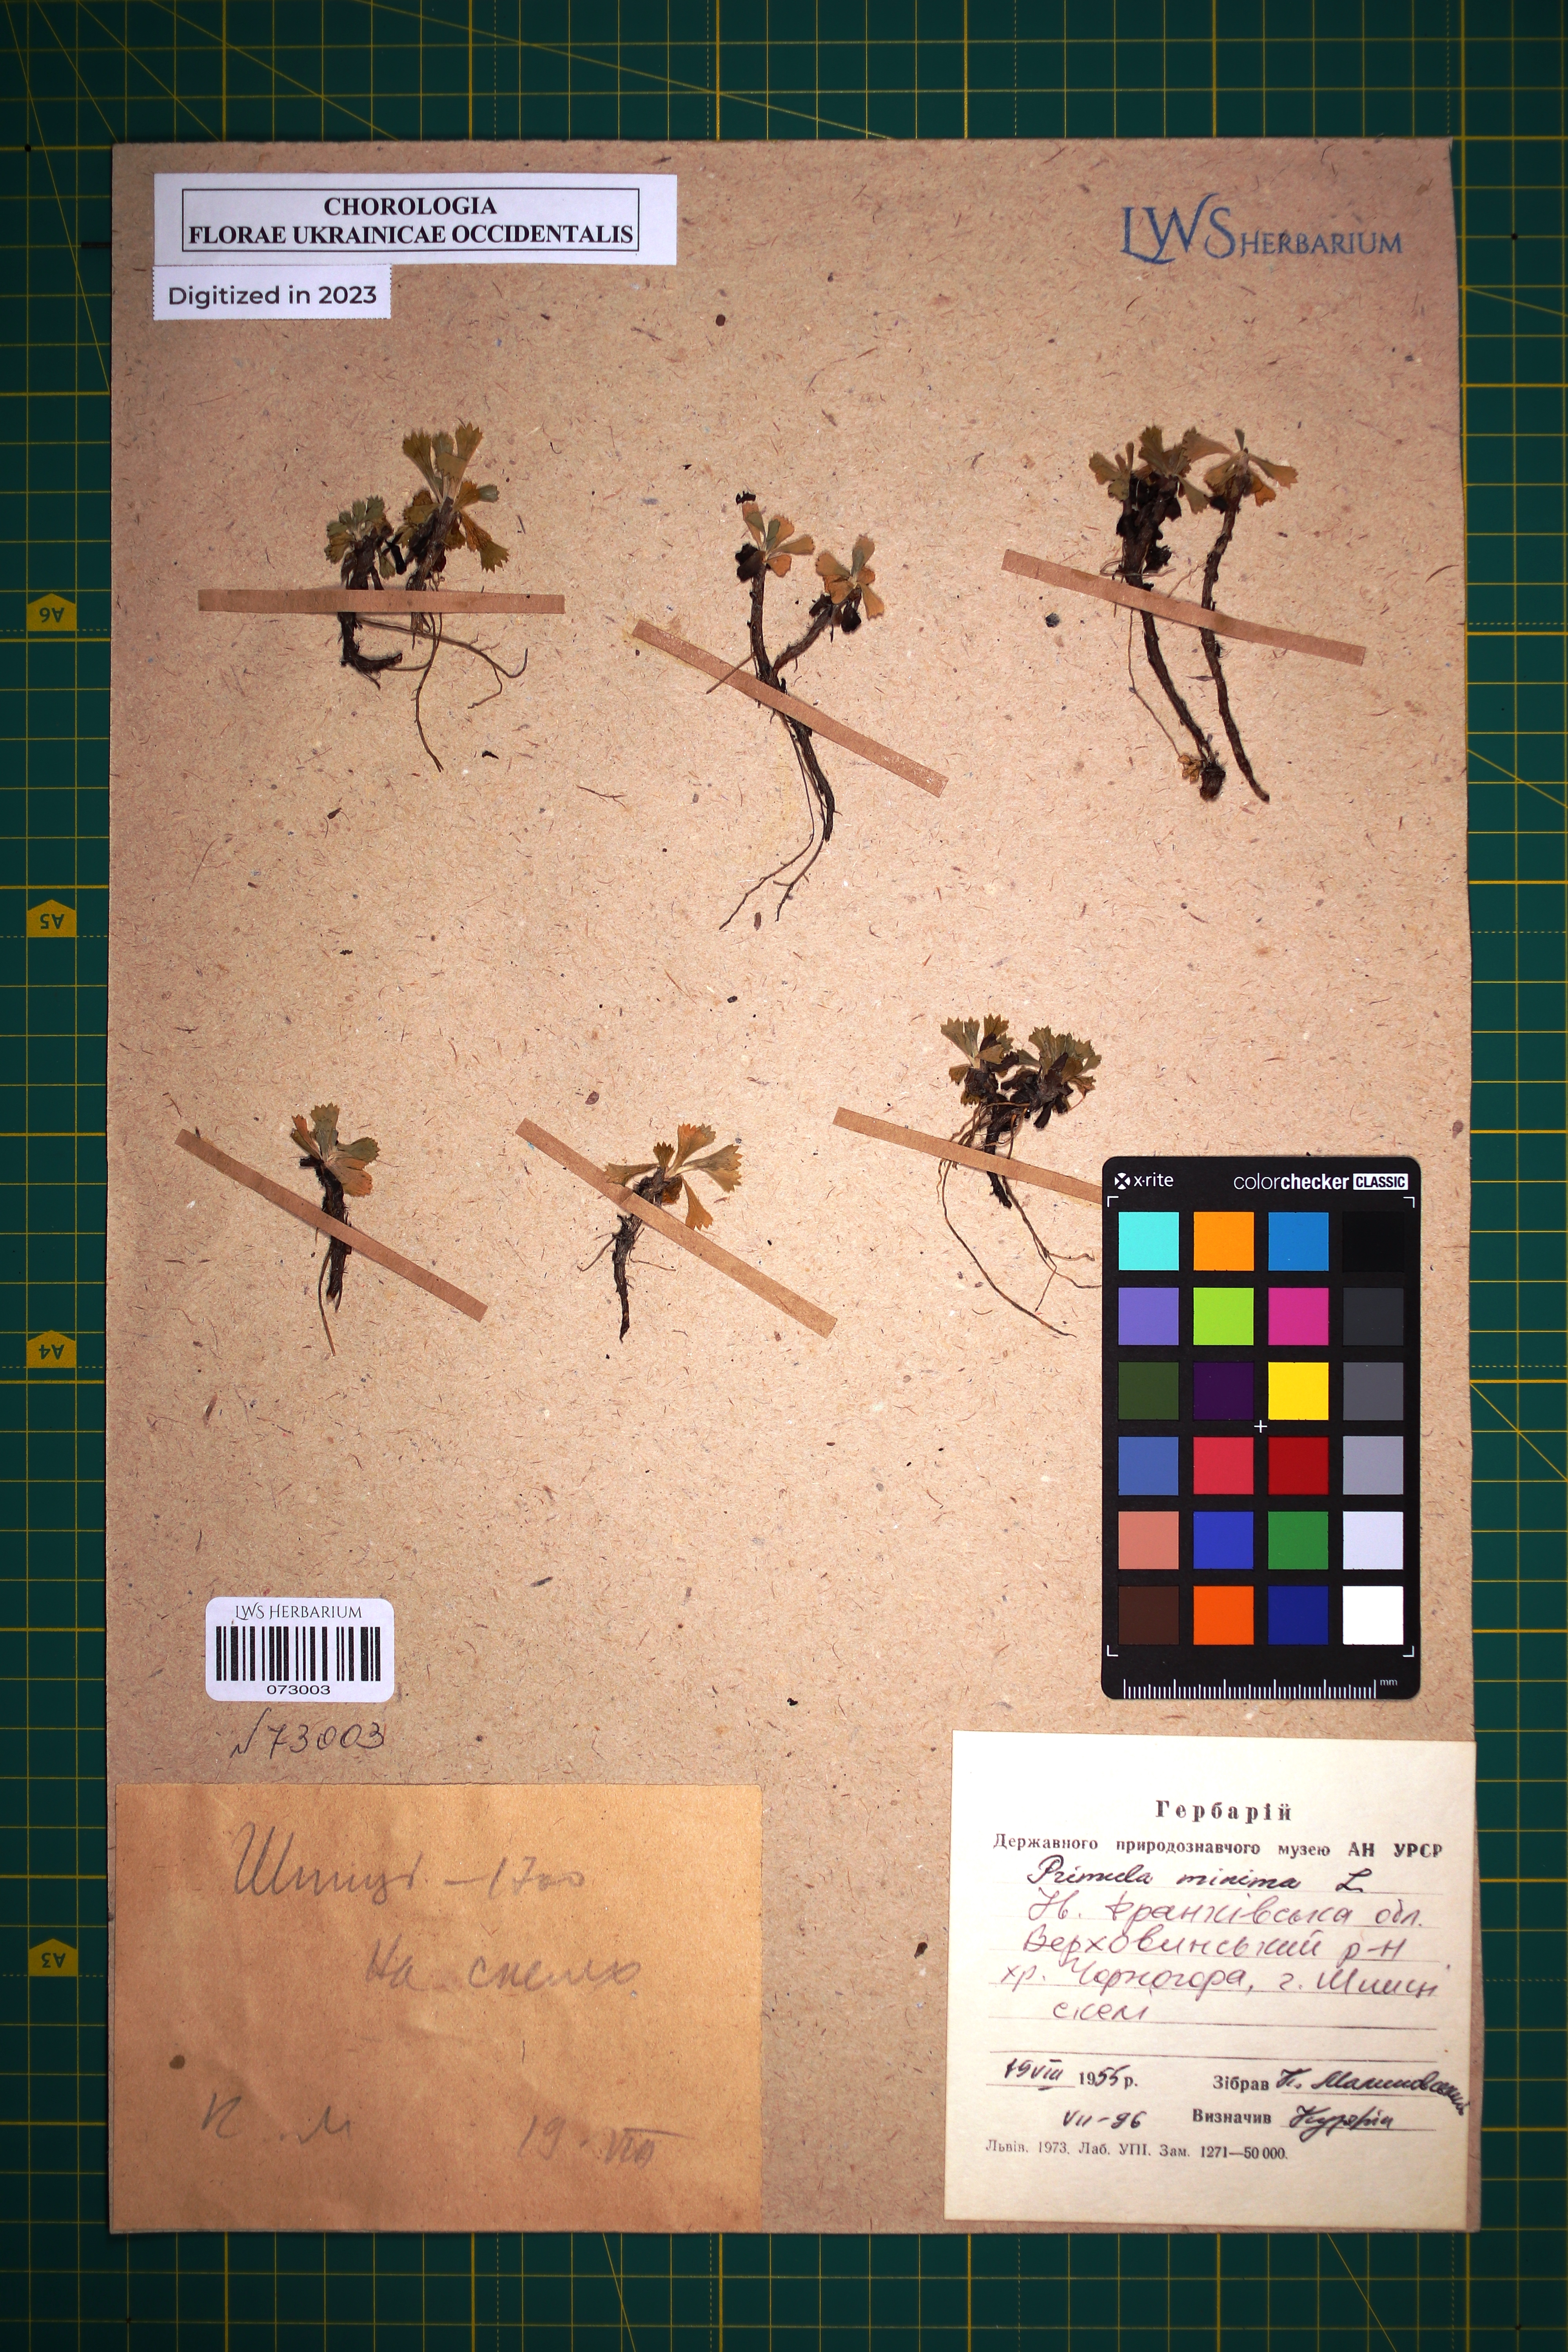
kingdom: Plantae
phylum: Tracheophyta
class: Magnoliopsida
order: Ericales
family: Primulaceae
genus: Primula
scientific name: Primula minima
